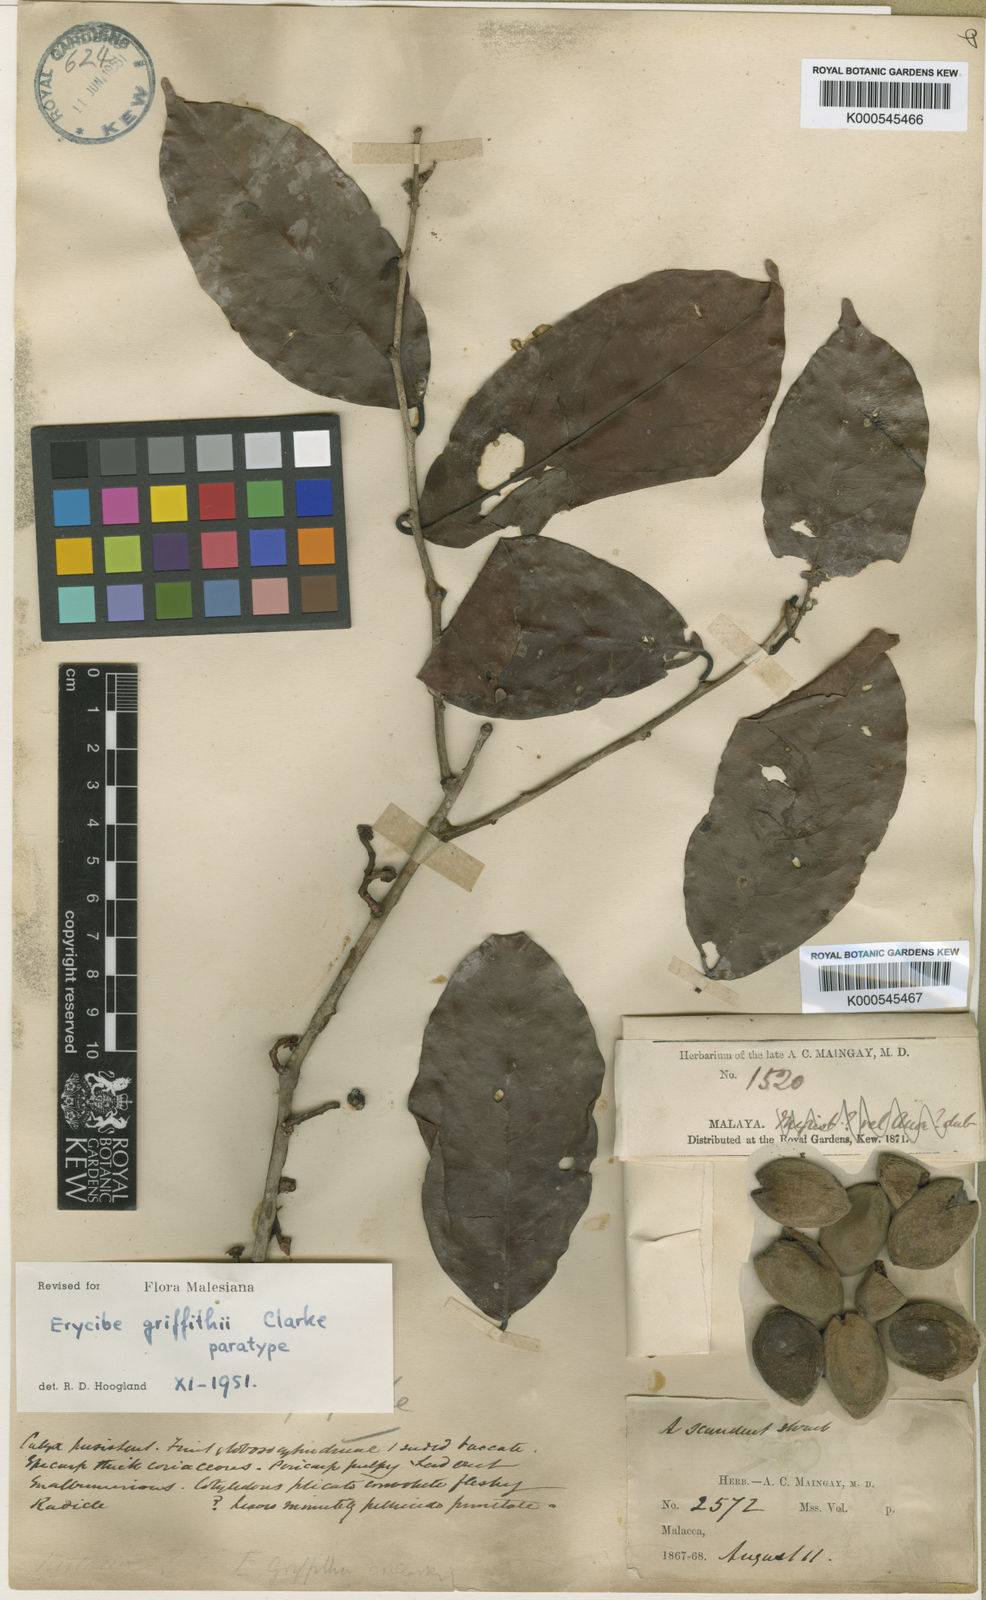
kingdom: Plantae
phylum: Tracheophyta
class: Magnoliopsida
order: Solanales
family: Convolvulaceae
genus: Erycibe
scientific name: Erycibe griffithii
